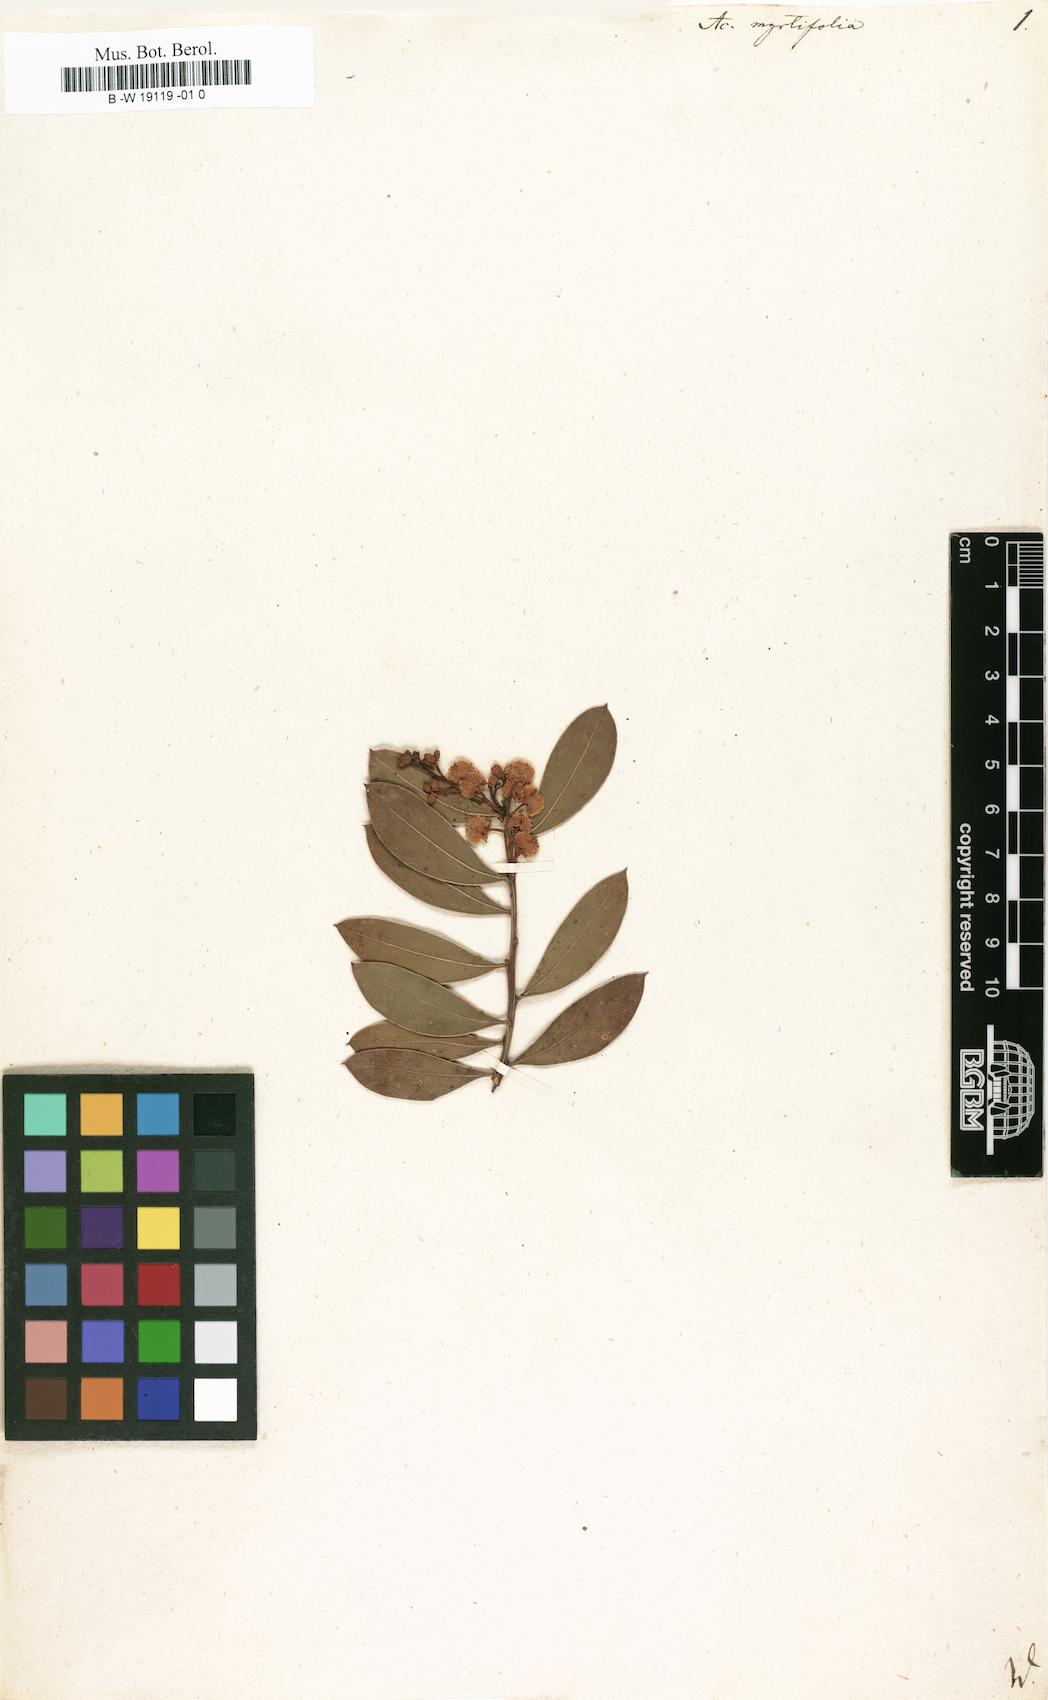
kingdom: Plantae
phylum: Tracheophyta
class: Magnoliopsida
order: Fabales
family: Fabaceae
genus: Acacia
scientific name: Acacia myrtifolia
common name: Myrtle wattle
